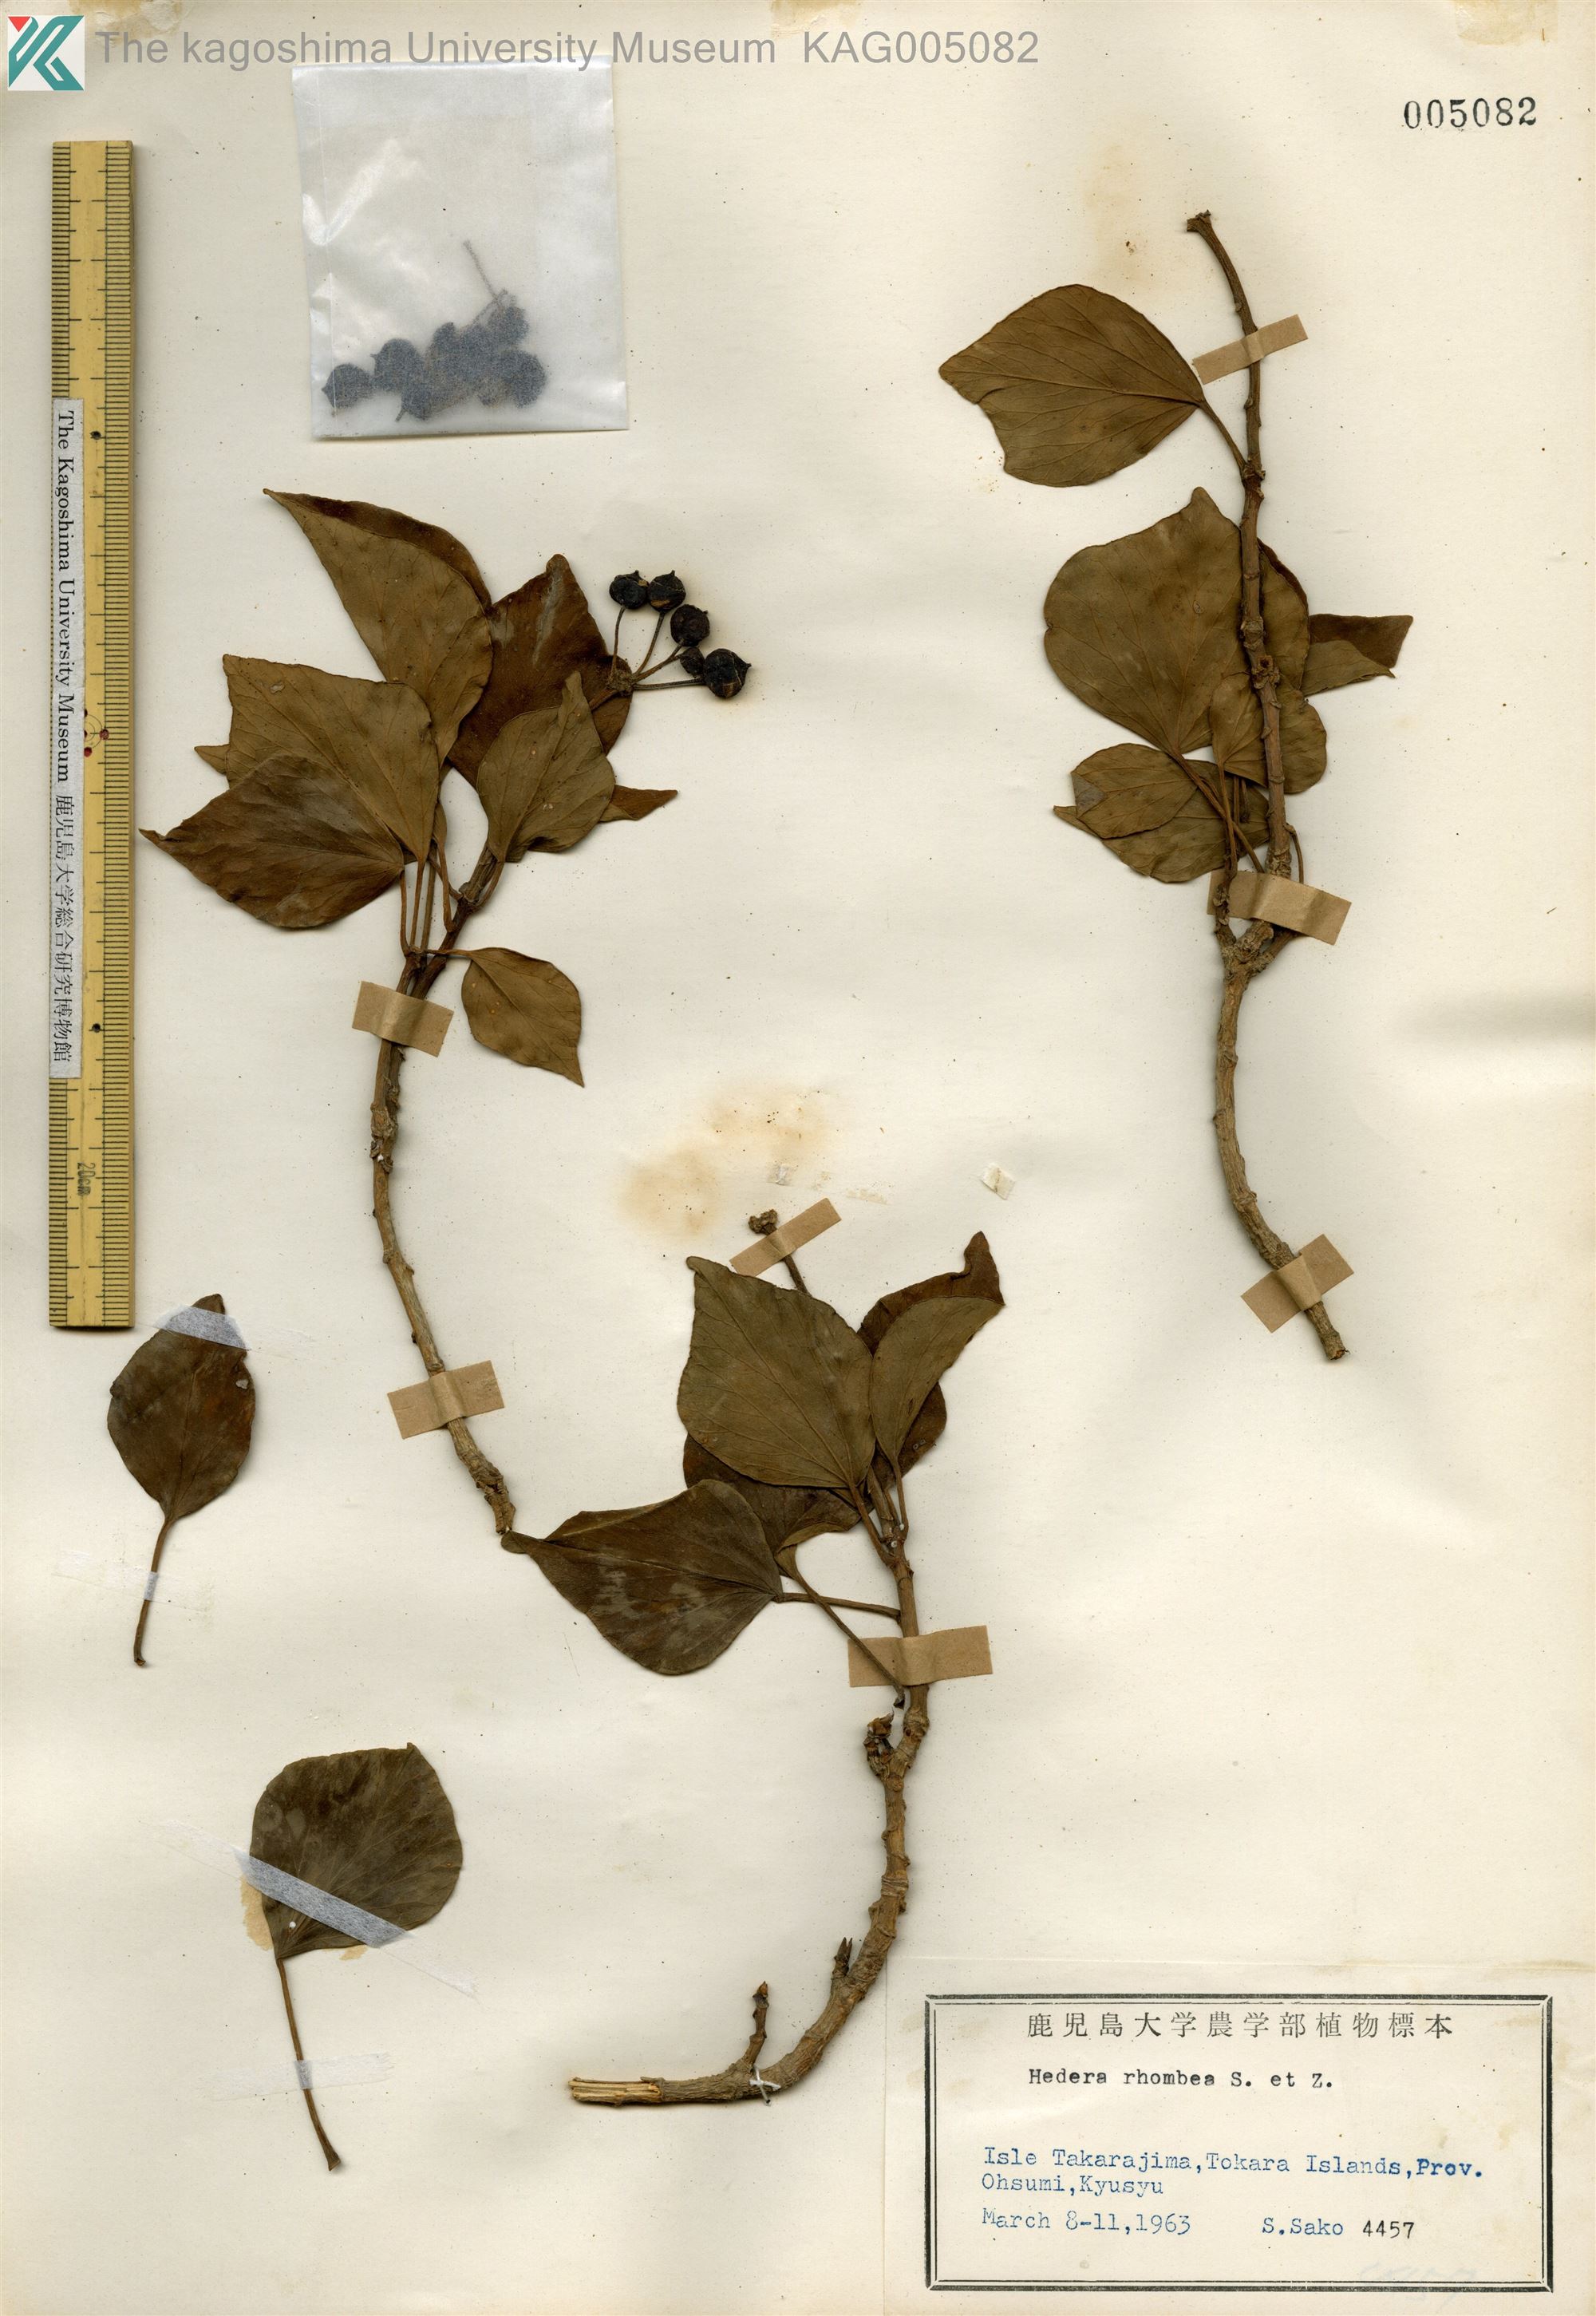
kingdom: Plantae
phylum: Tracheophyta
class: Magnoliopsida
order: Apiales
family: Araliaceae
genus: Hedera
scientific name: Hedera rhombea
